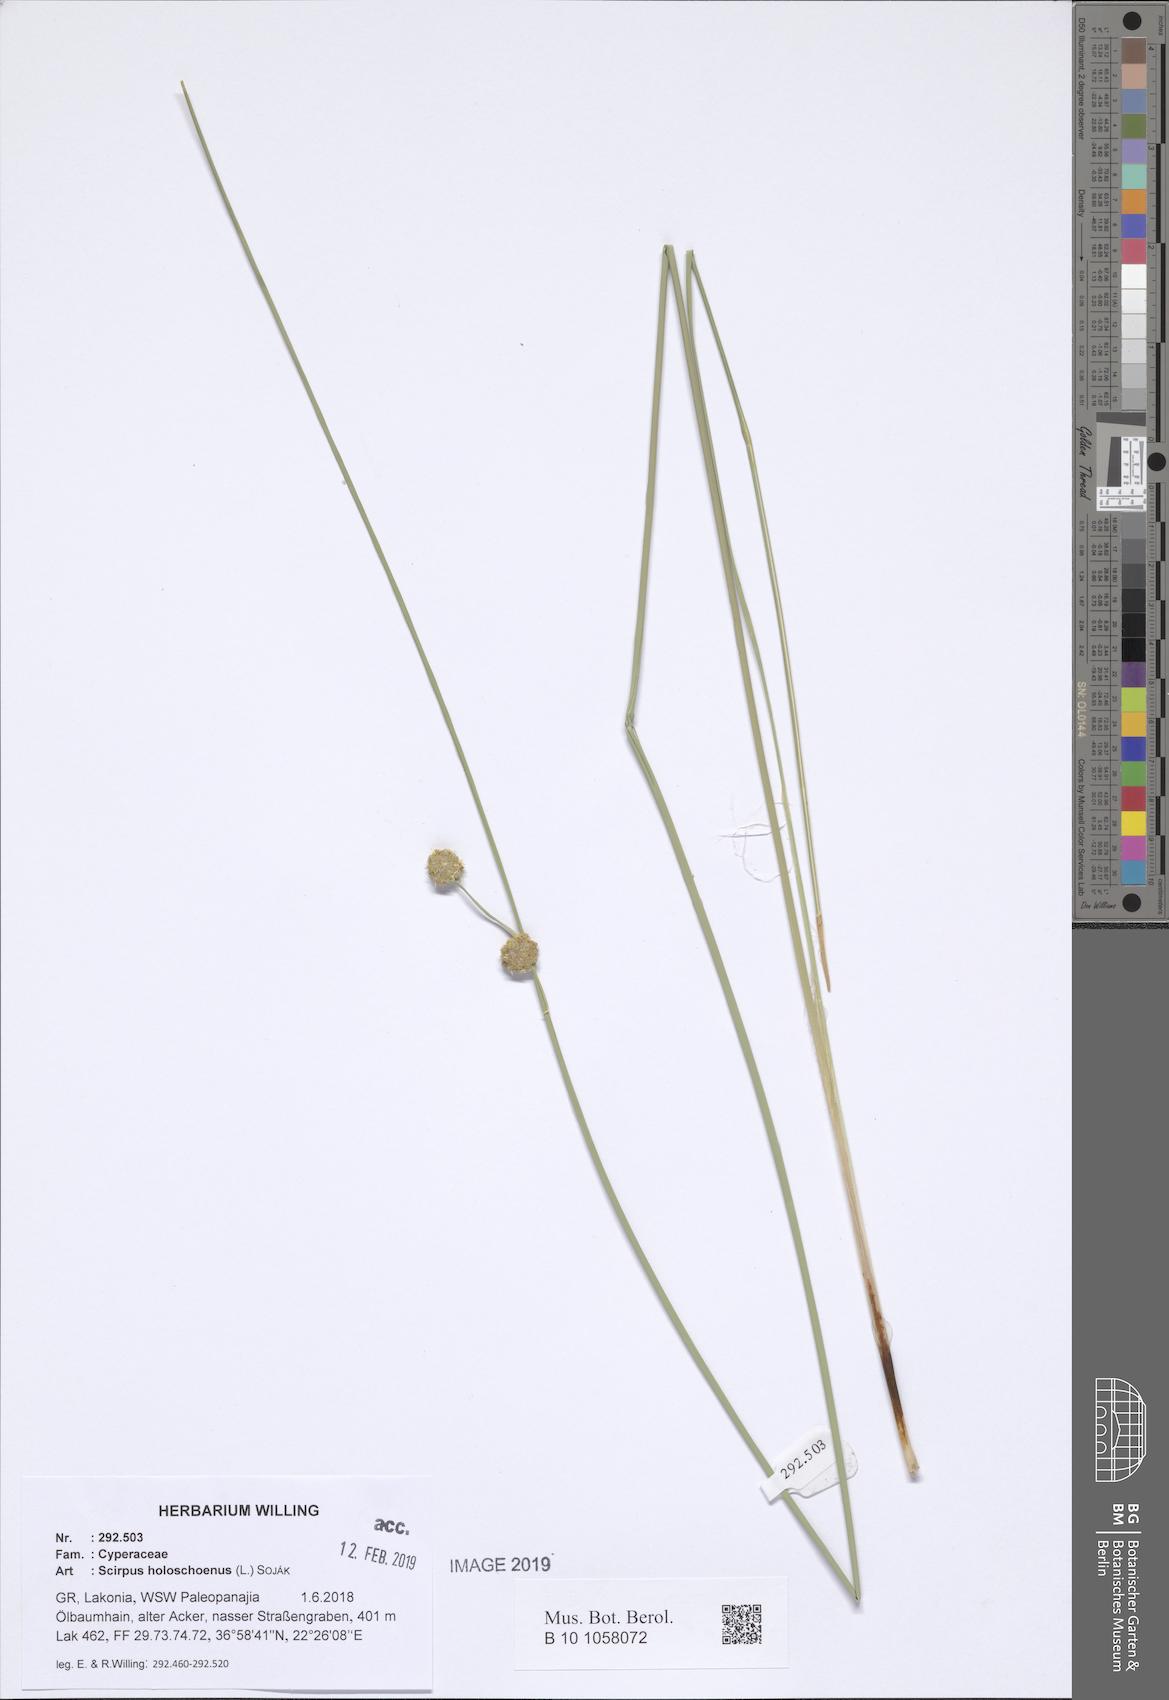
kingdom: Plantae
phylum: Tracheophyta
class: Liliopsida
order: Poales
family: Cyperaceae
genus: Scirpoides
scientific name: Scirpoides holoschoenus
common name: Round-headed club-rush
